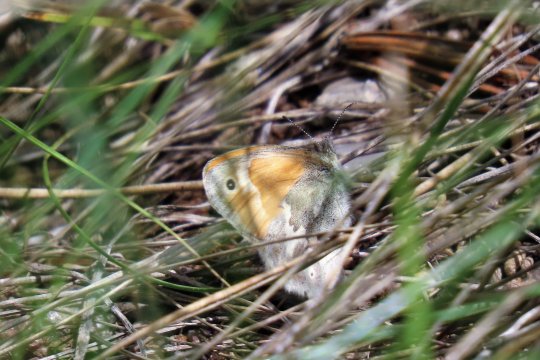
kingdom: Animalia
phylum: Arthropoda
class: Insecta
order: Lepidoptera
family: Nymphalidae
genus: Coenonympha
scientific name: Coenonympha tullia
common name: Large Heath
